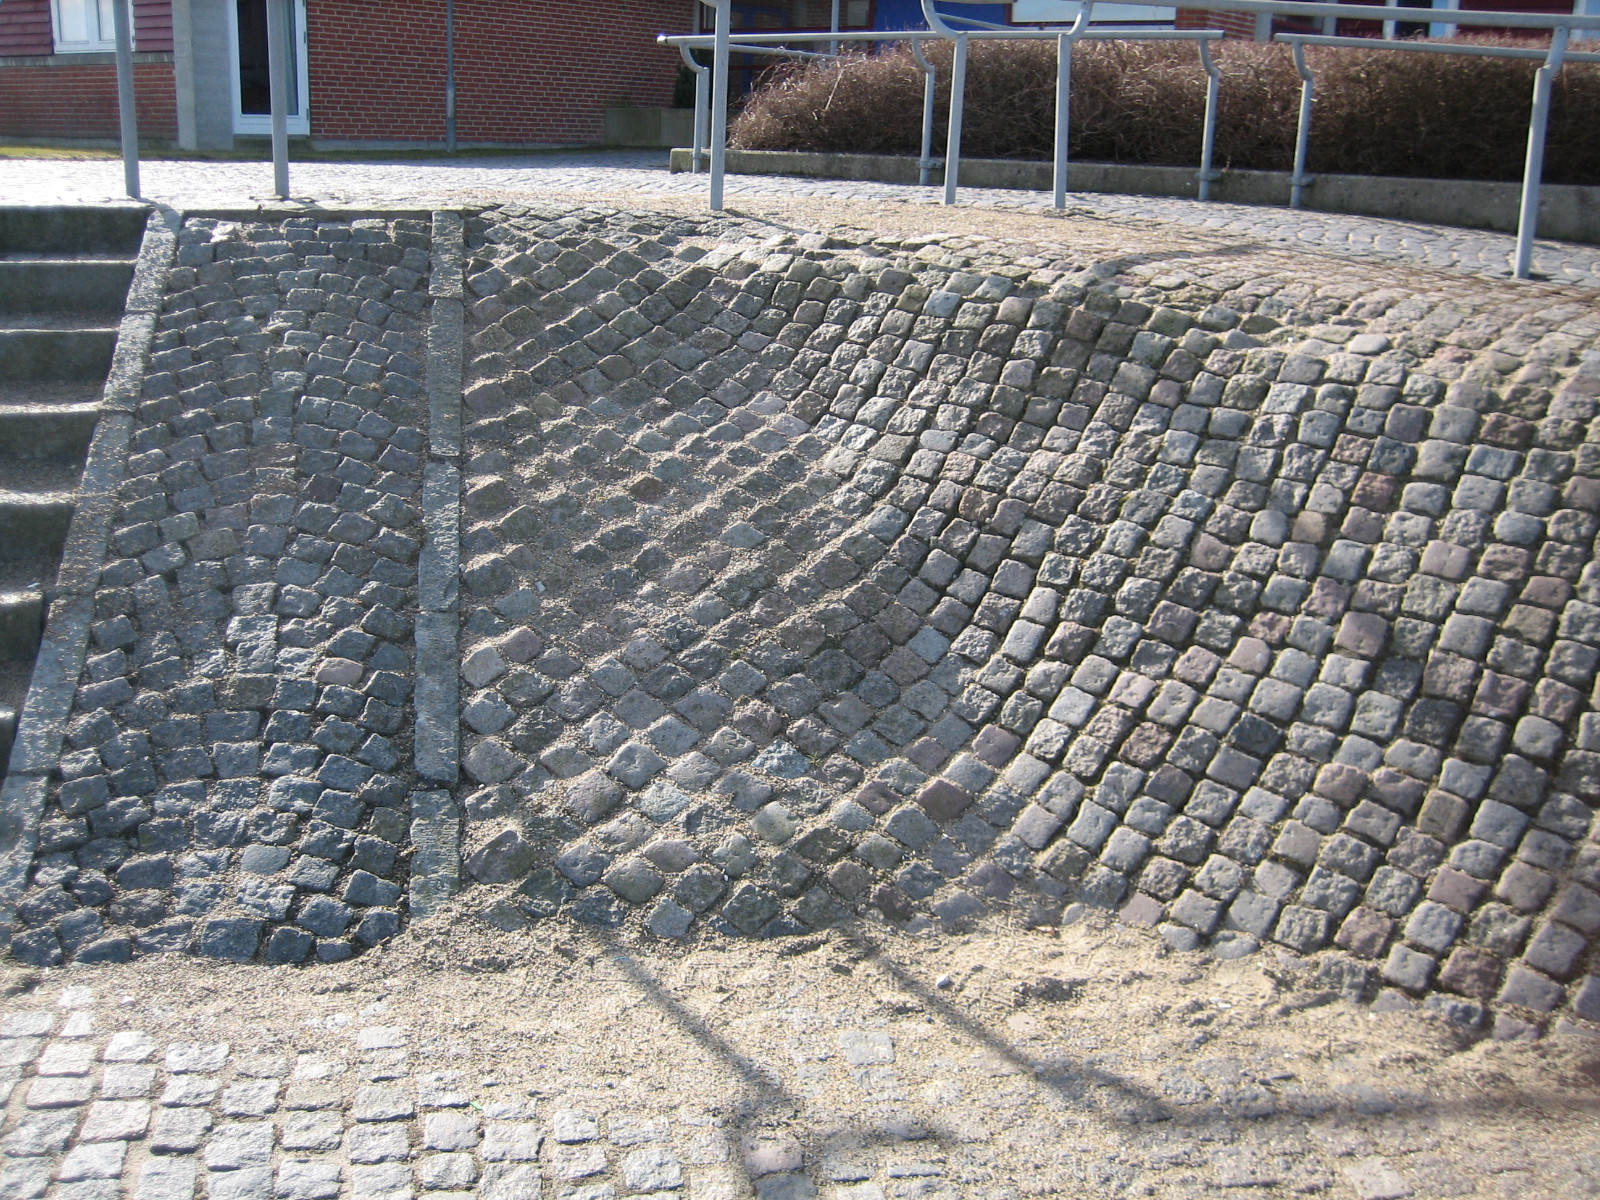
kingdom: Fungi
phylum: Ascomycota
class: Lecanoromycetes
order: Lecanorales
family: Stereocaulaceae
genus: Stereocaulon
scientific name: Stereocaulon condensatum
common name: lav korallav
